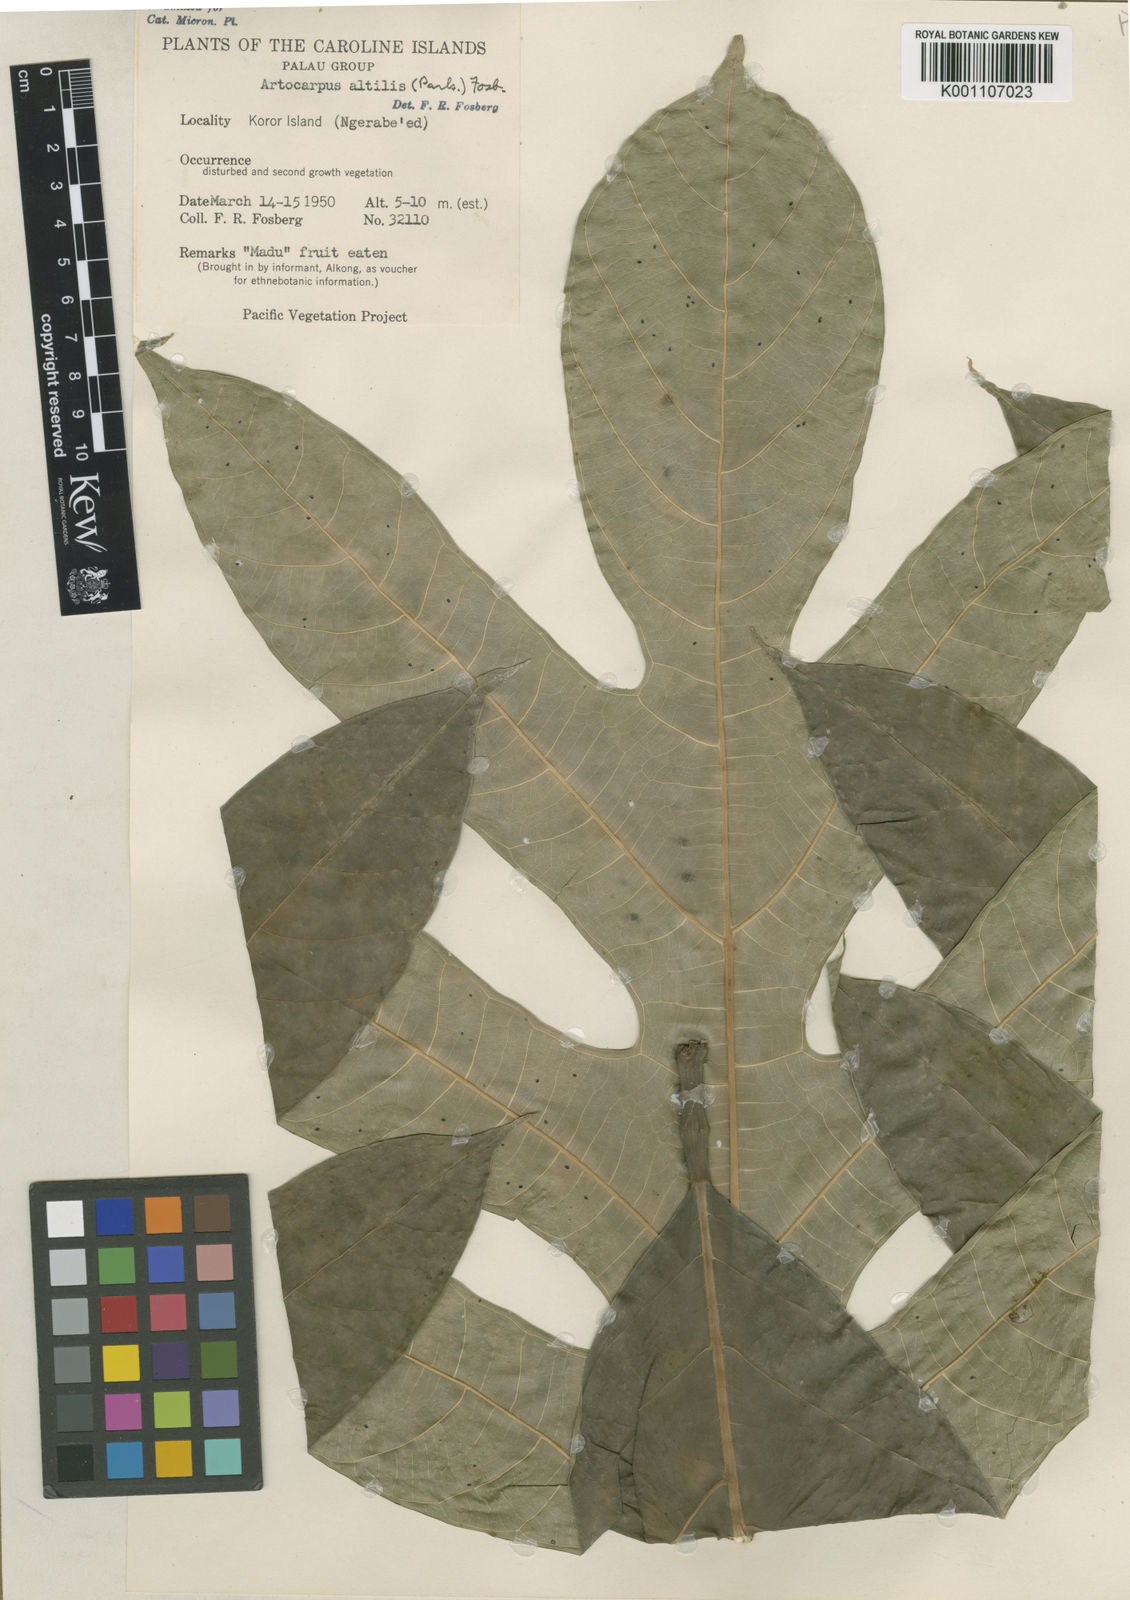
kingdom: Plantae
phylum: Tracheophyta
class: Magnoliopsida
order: Rosales
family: Moraceae
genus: Artocarpus
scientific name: Artocarpus altilis
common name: Breadfruit
